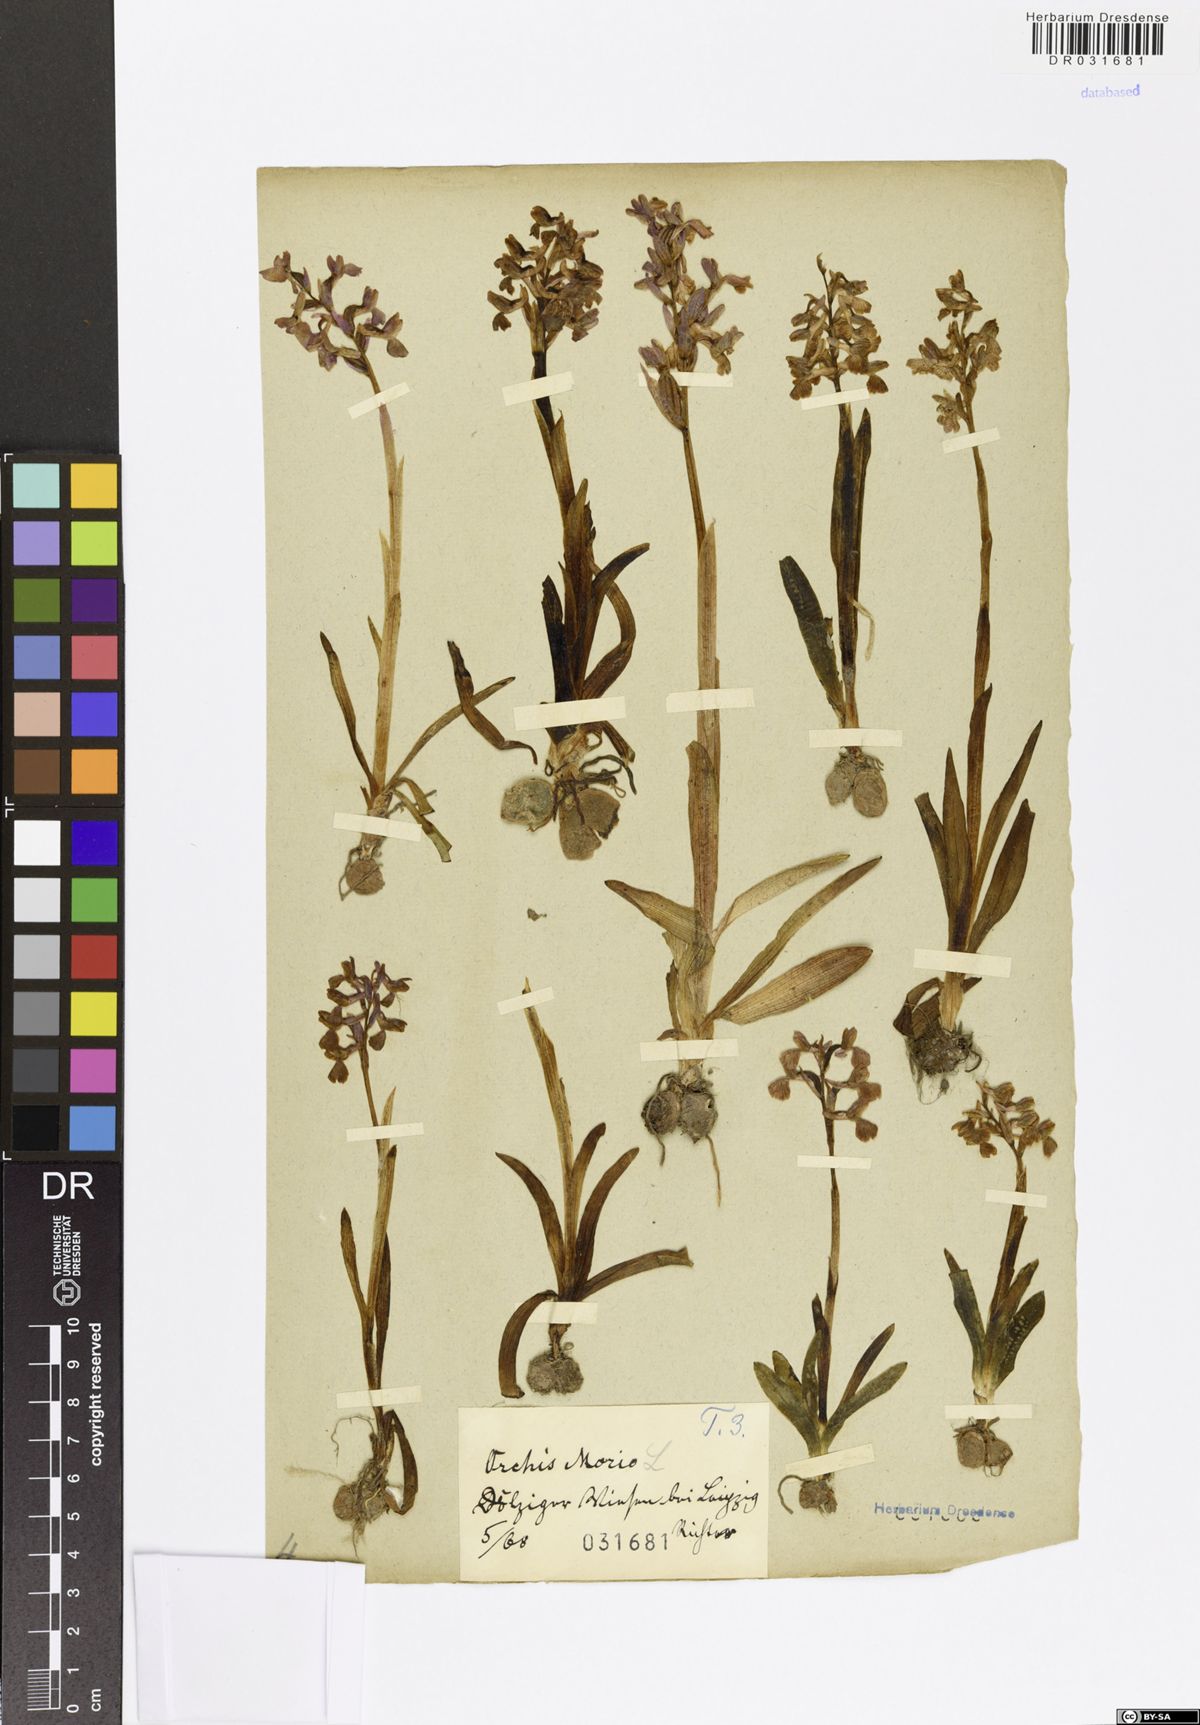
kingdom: Plantae
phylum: Tracheophyta
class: Liliopsida
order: Asparagales
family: Orchidaceae
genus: Anacamptis
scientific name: Anacamptis morio
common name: Green-winged orchid
